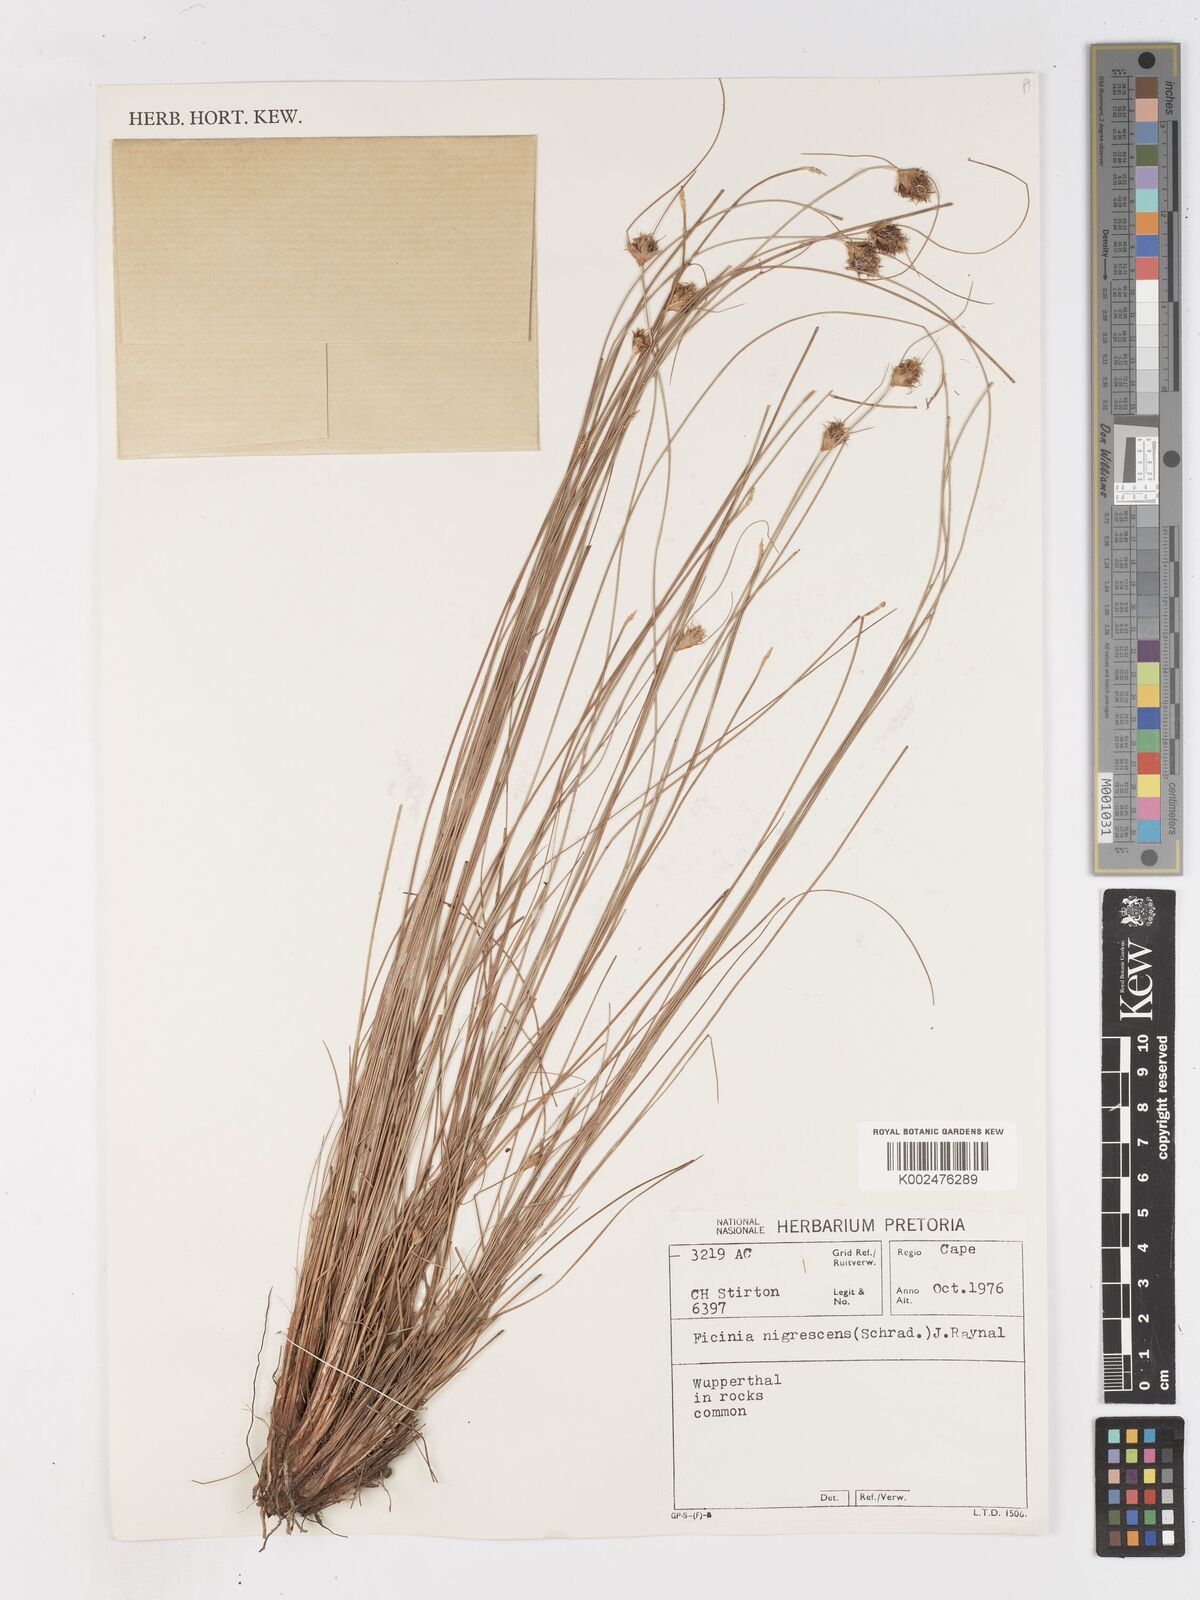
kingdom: Plantae
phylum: Tracheophyta
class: Liliopsida
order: Poales
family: Cyperaceae
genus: Ficinia
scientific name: Ficinia nigrescens
